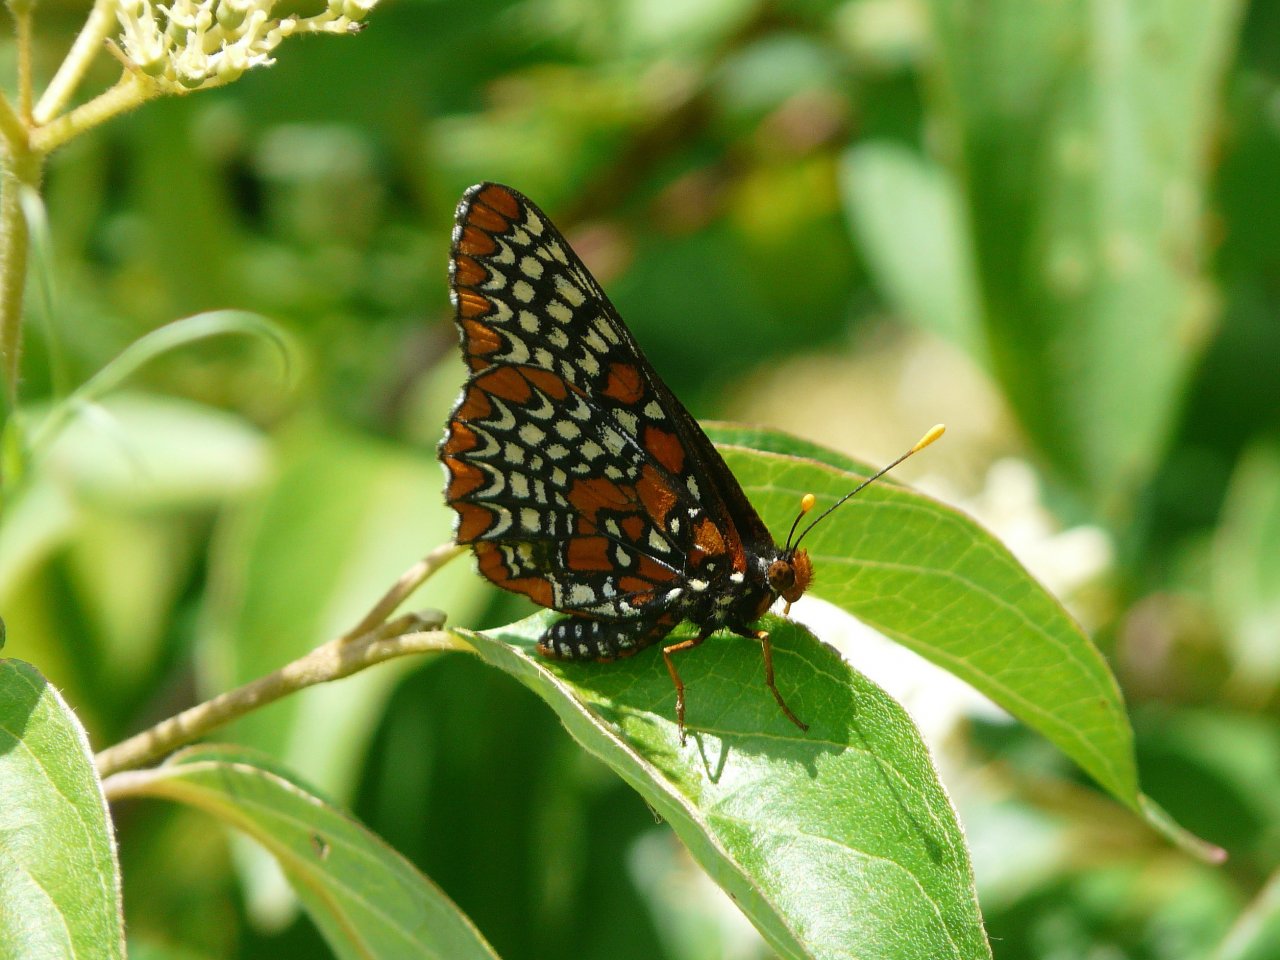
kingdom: Animalia
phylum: Arthropoda
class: Insecta
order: Lepidoptera
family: Nymphalidae
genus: Euphydryas
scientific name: Euphydryas phaeton
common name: Baltimore Checkerspot
